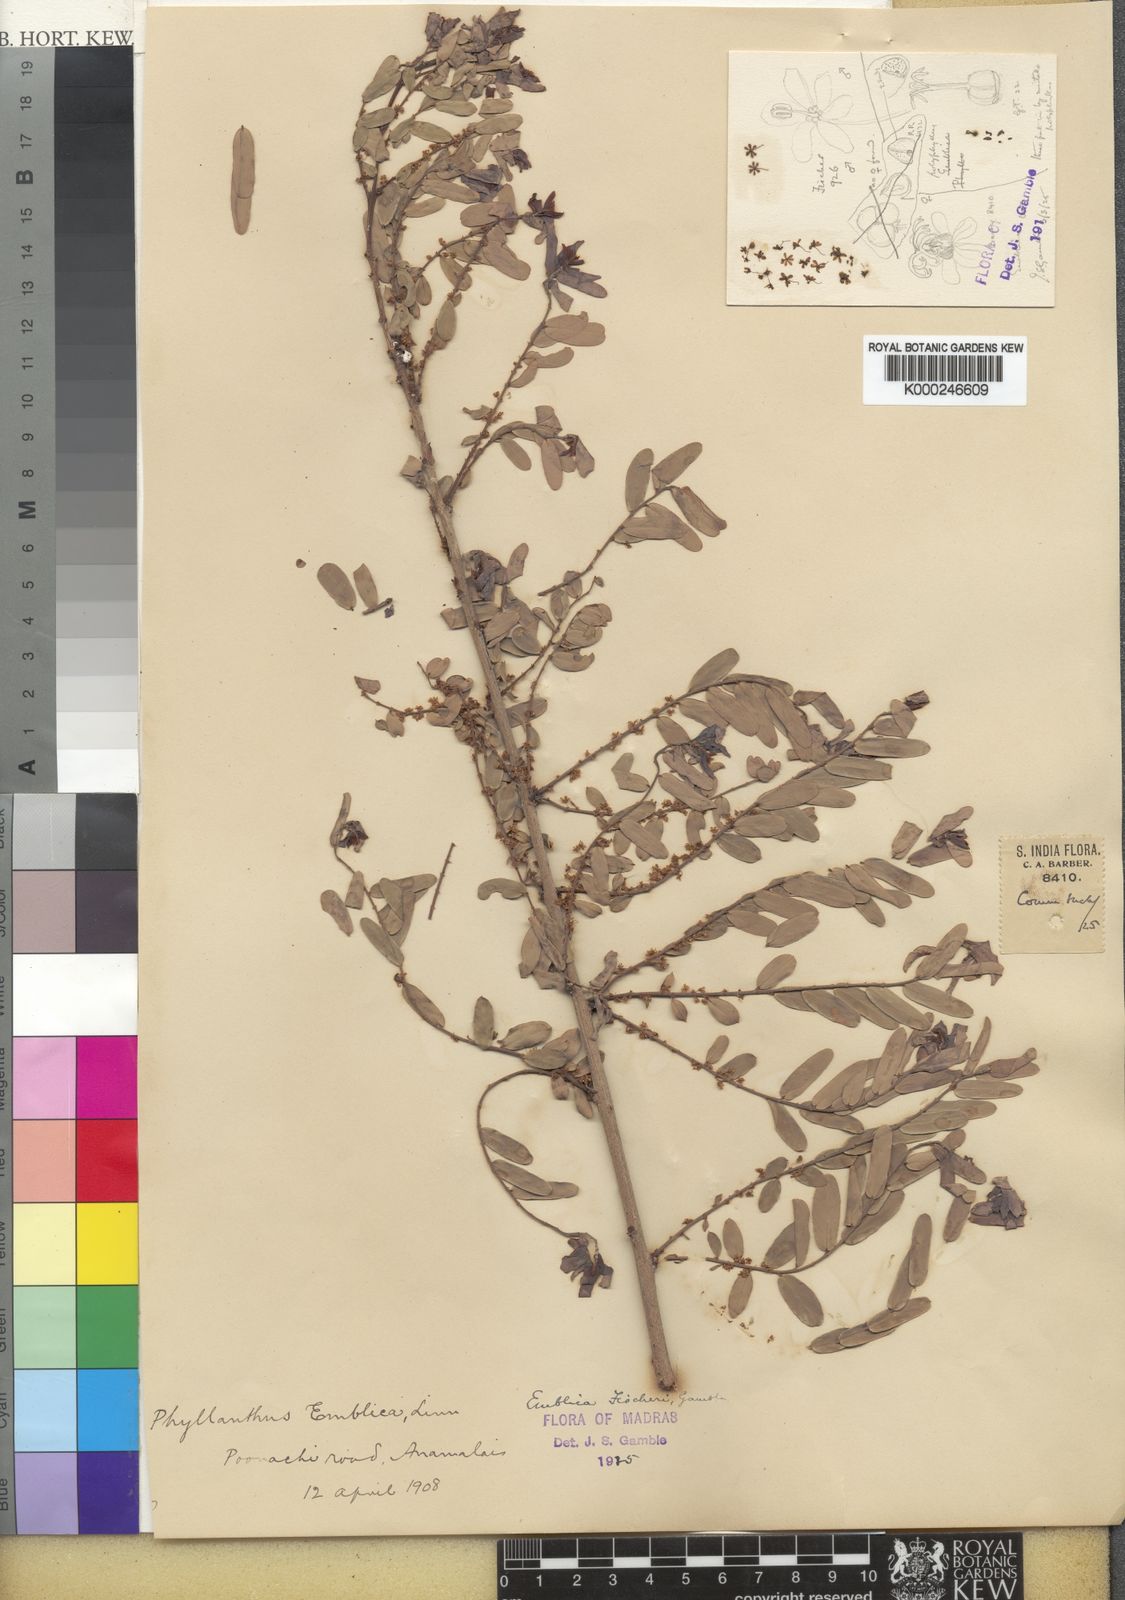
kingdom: Plantae
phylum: Tracheophyta
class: Magnoliopsida
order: Malpighiales
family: Phyllanthaceae
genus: Phyllanthus
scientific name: Phyllanthus indofischeri
